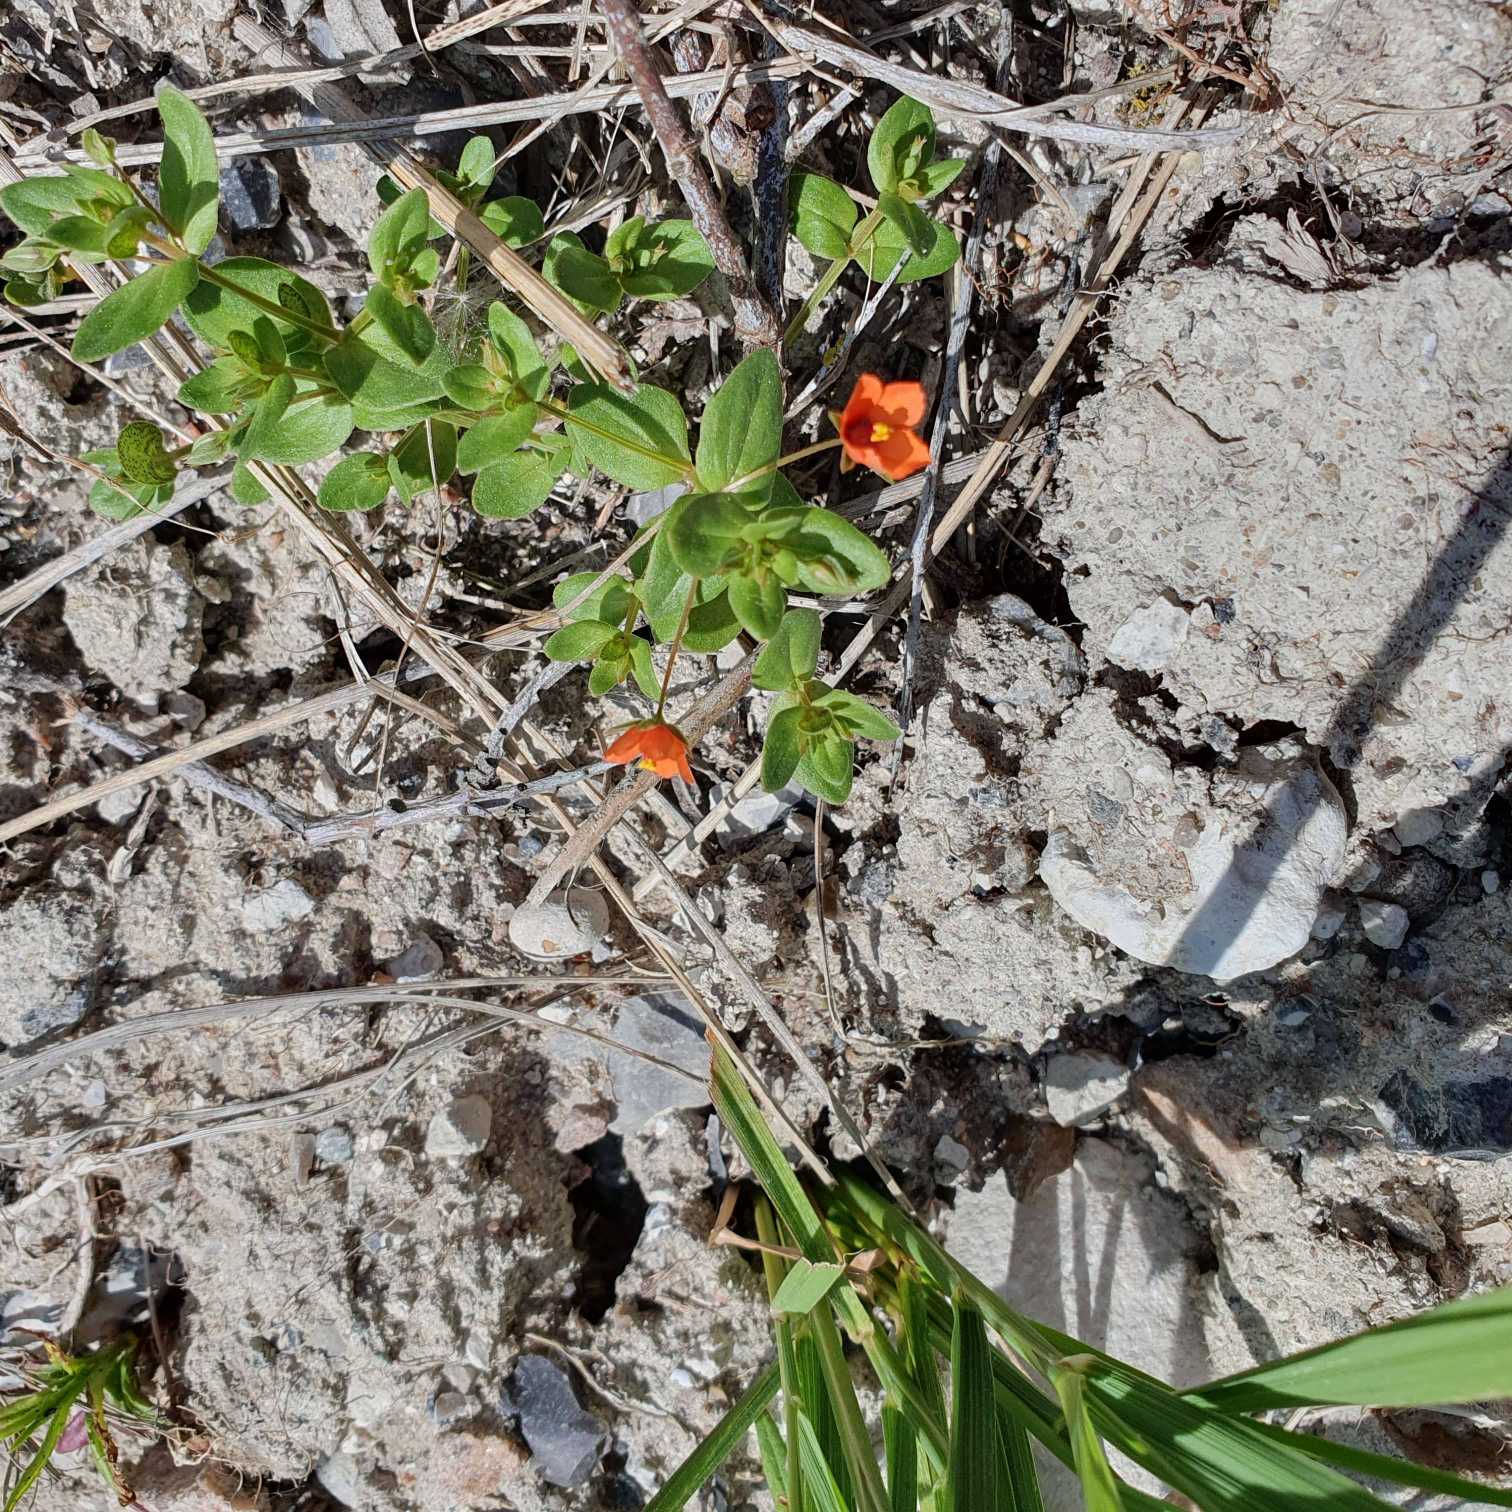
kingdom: Plantae
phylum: Tracheophyta
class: Magnoliopsida
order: Ericales
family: Primulaceae
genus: Lysimachia
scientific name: Lysimachia arvensis
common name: Rød arve
